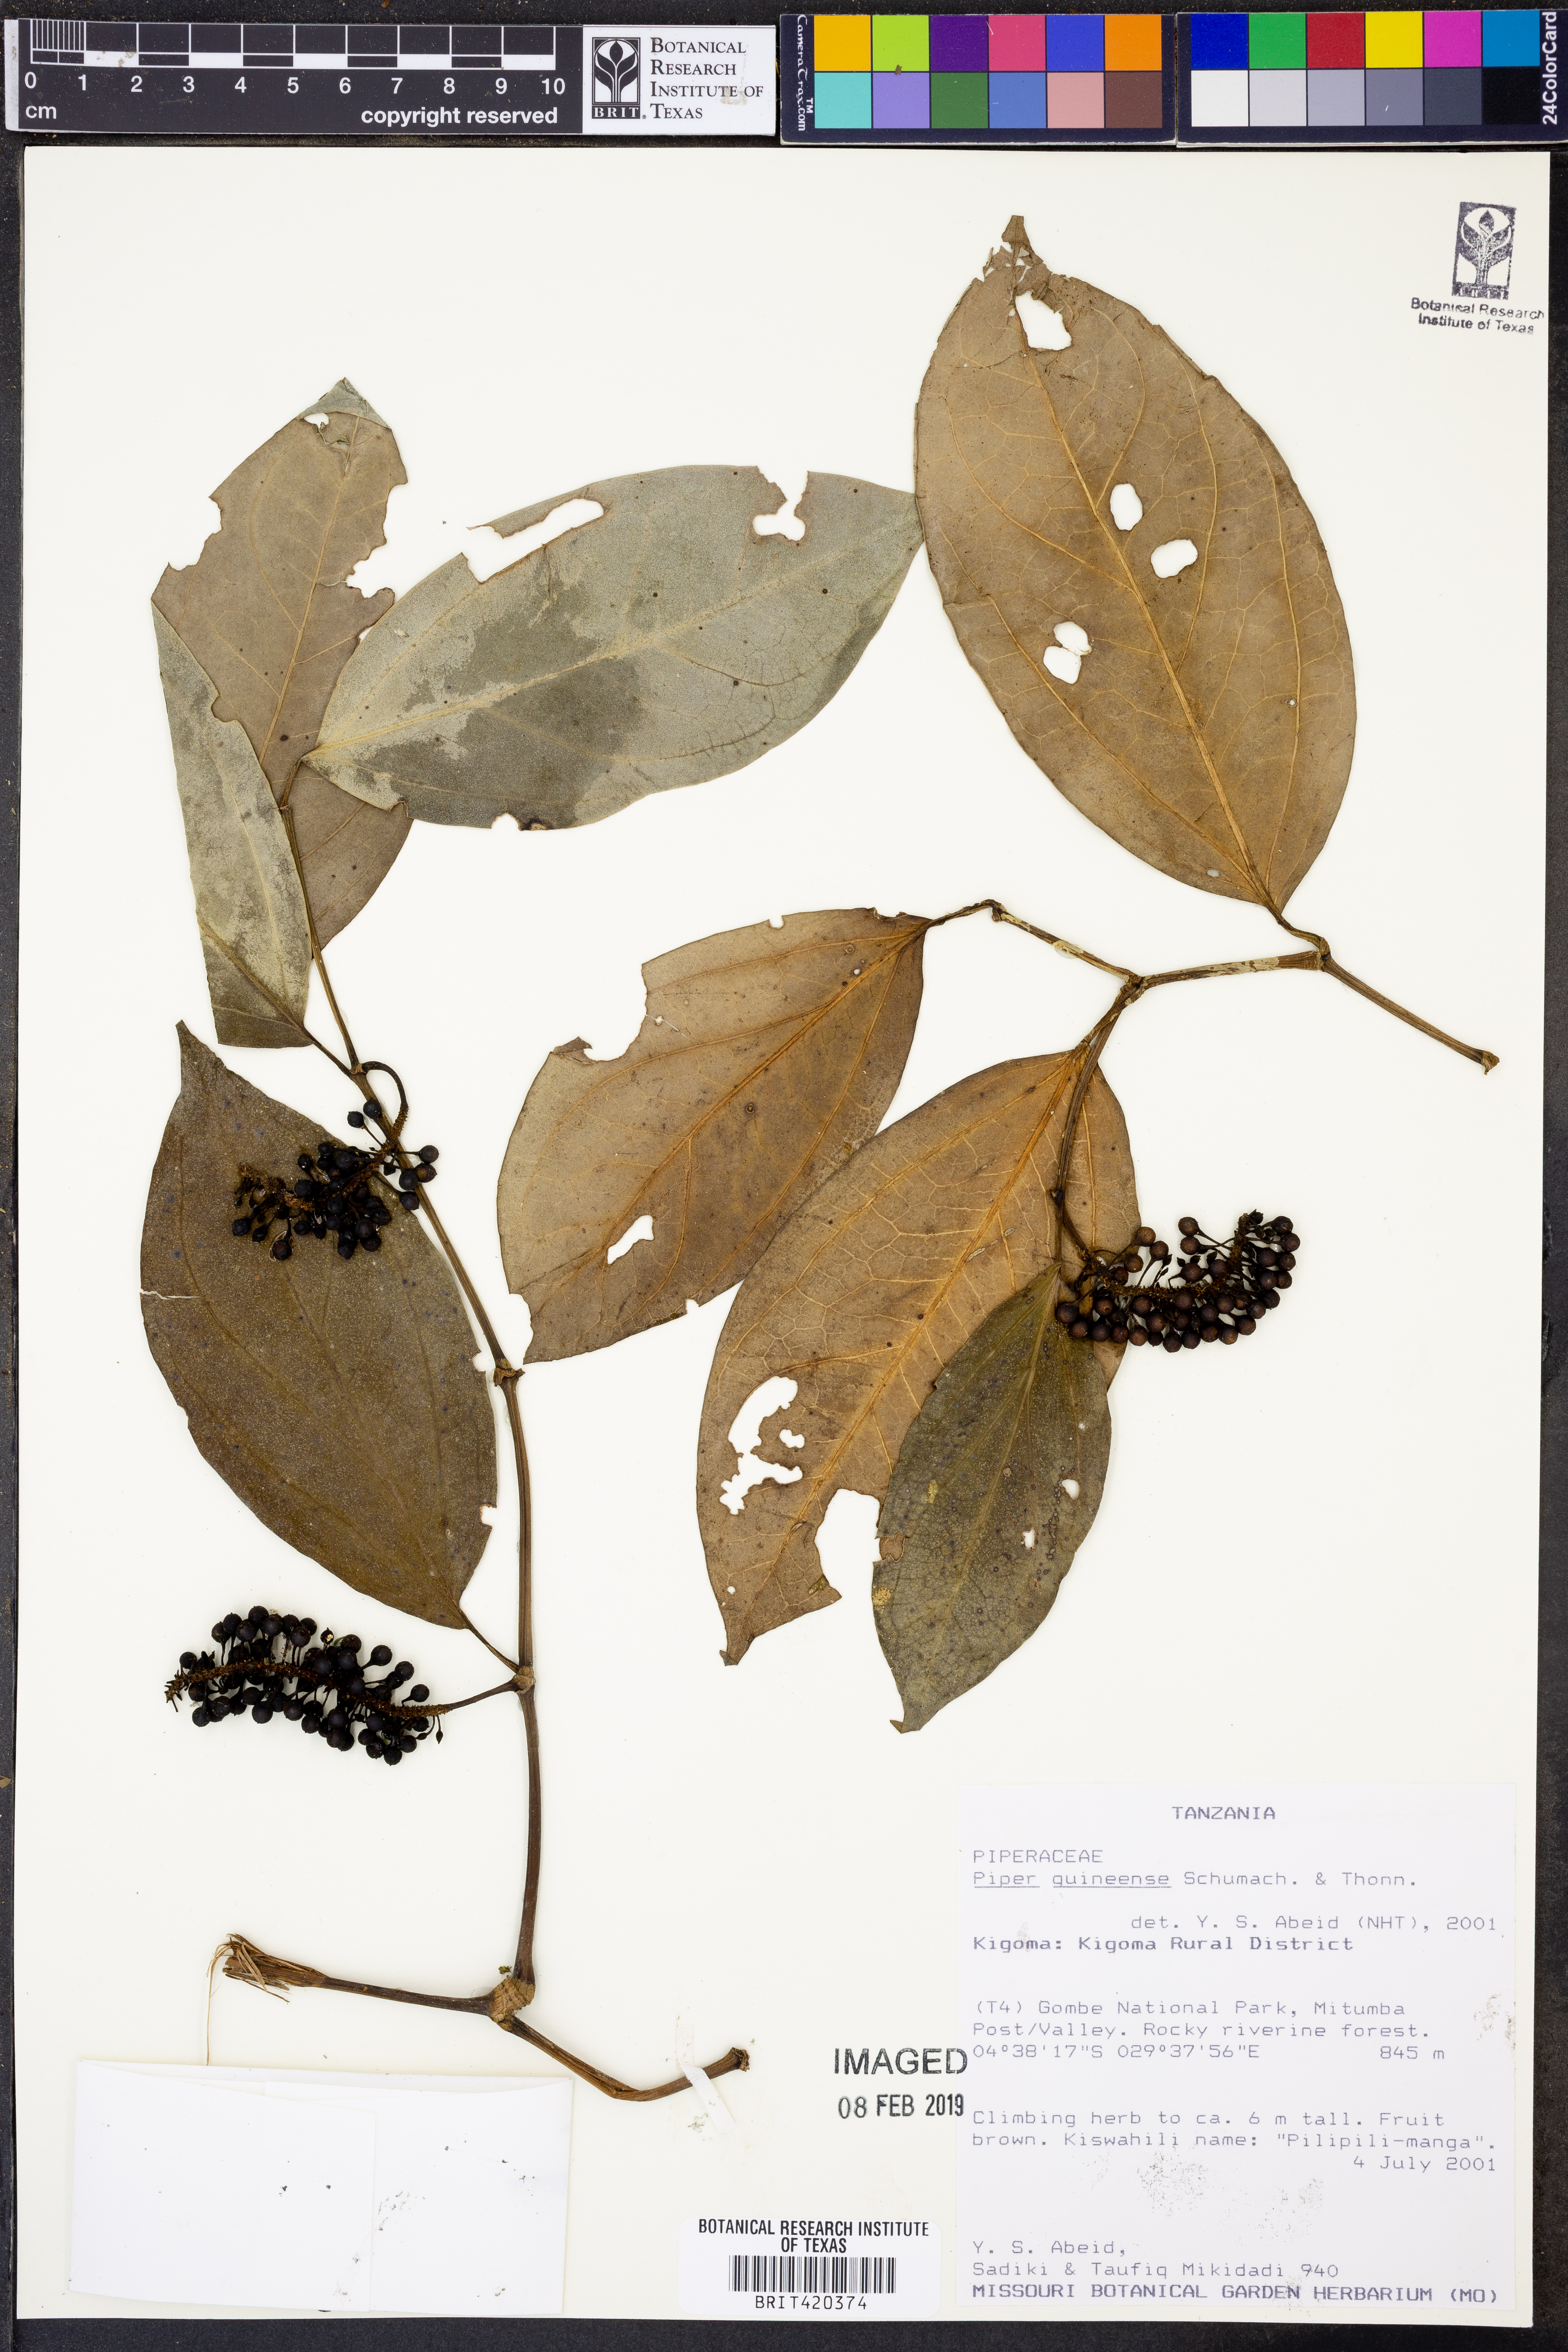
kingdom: Plantae
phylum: Tracheophyta
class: Magnoliopsida
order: Piperales
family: Piperaceae
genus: Piper
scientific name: Piper guineense
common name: Benin pepper
